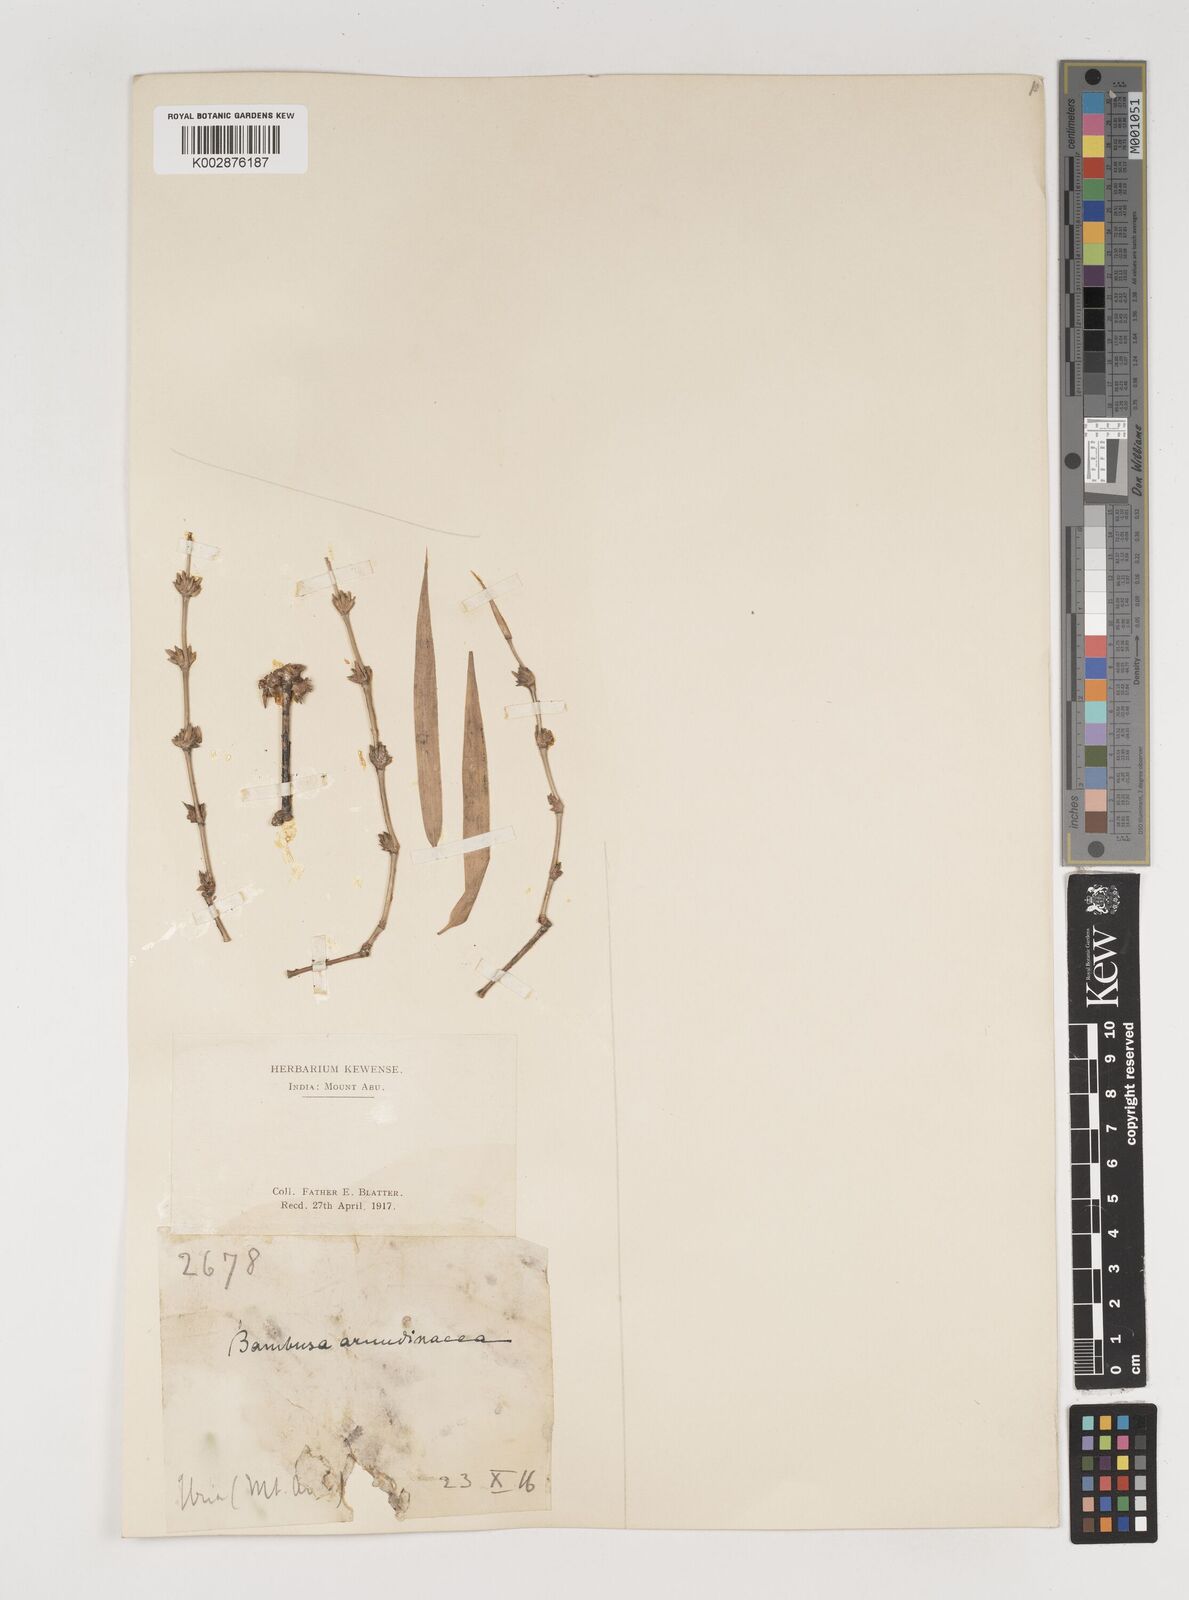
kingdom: Plantae
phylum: Tracheophyta
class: Liliopsida
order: Poales
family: Poaceae
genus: Bambusa
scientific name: Bambusa bambos
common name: Indian thorny bamboo
